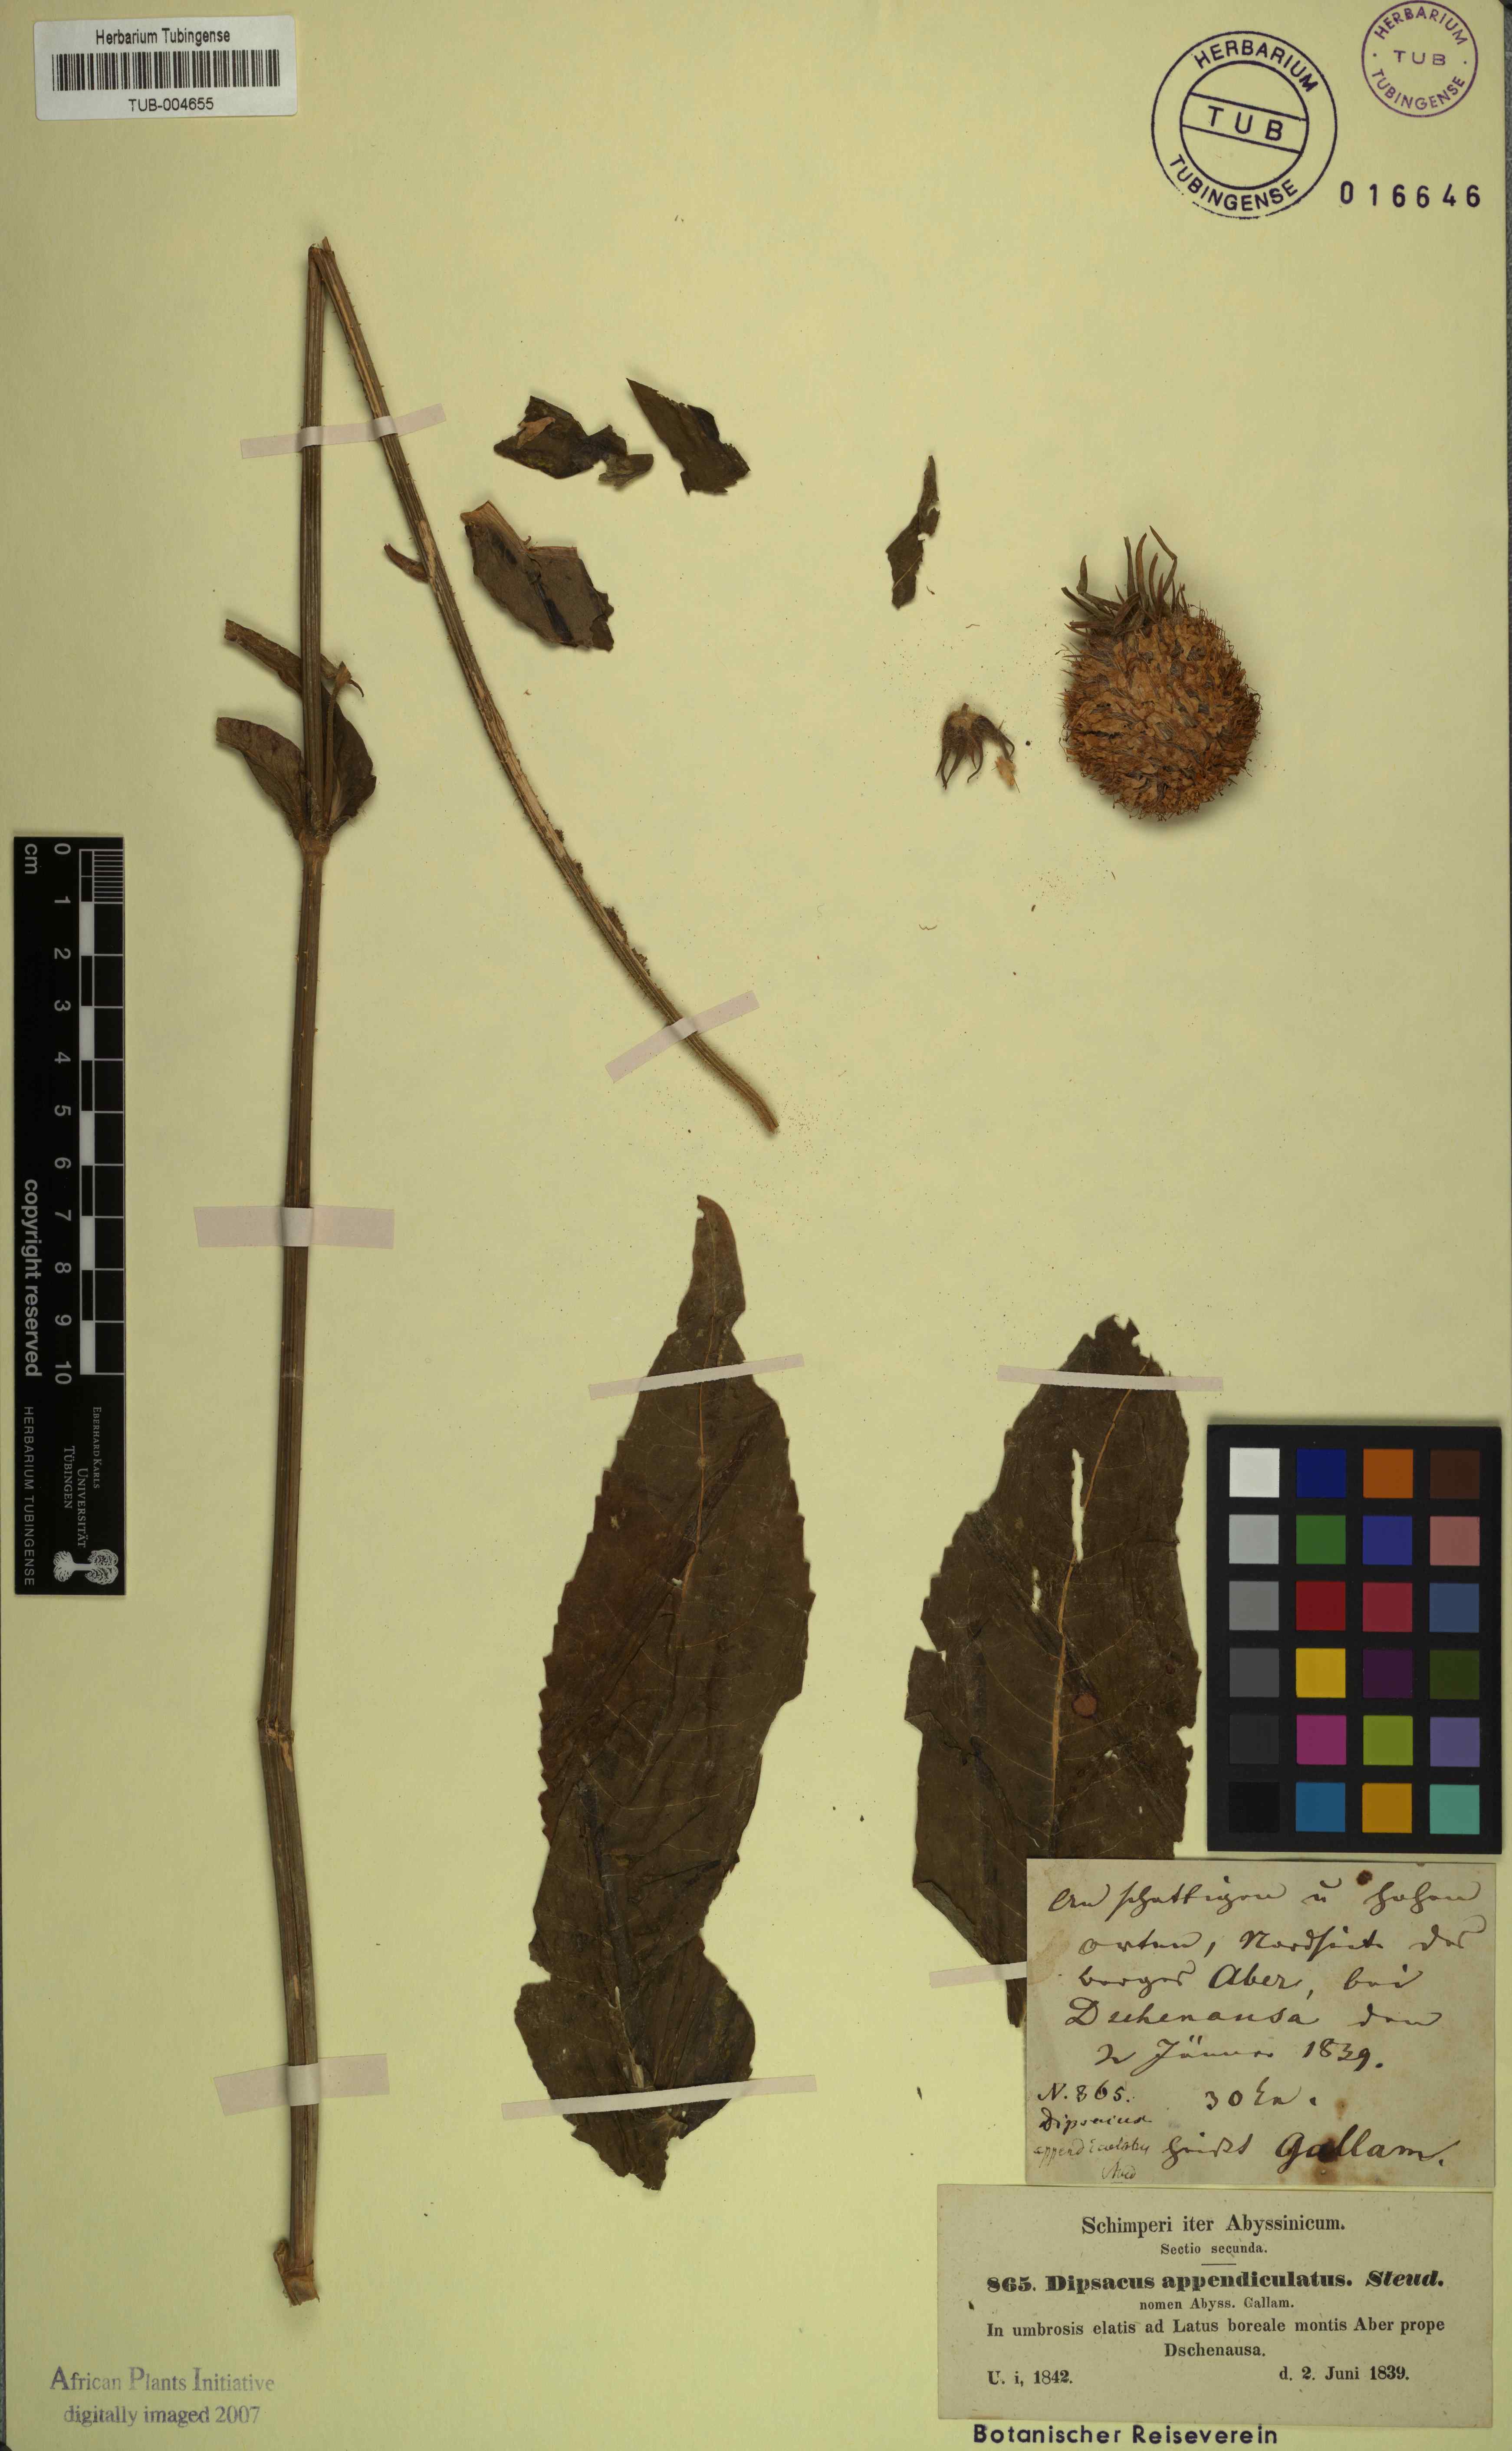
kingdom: Plantae
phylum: Tracheophyta
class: Magnoliopsida
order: Dipsacales
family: Caprifoliaceae
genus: Dipsacus
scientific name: Dipsacus pinnatifidus
